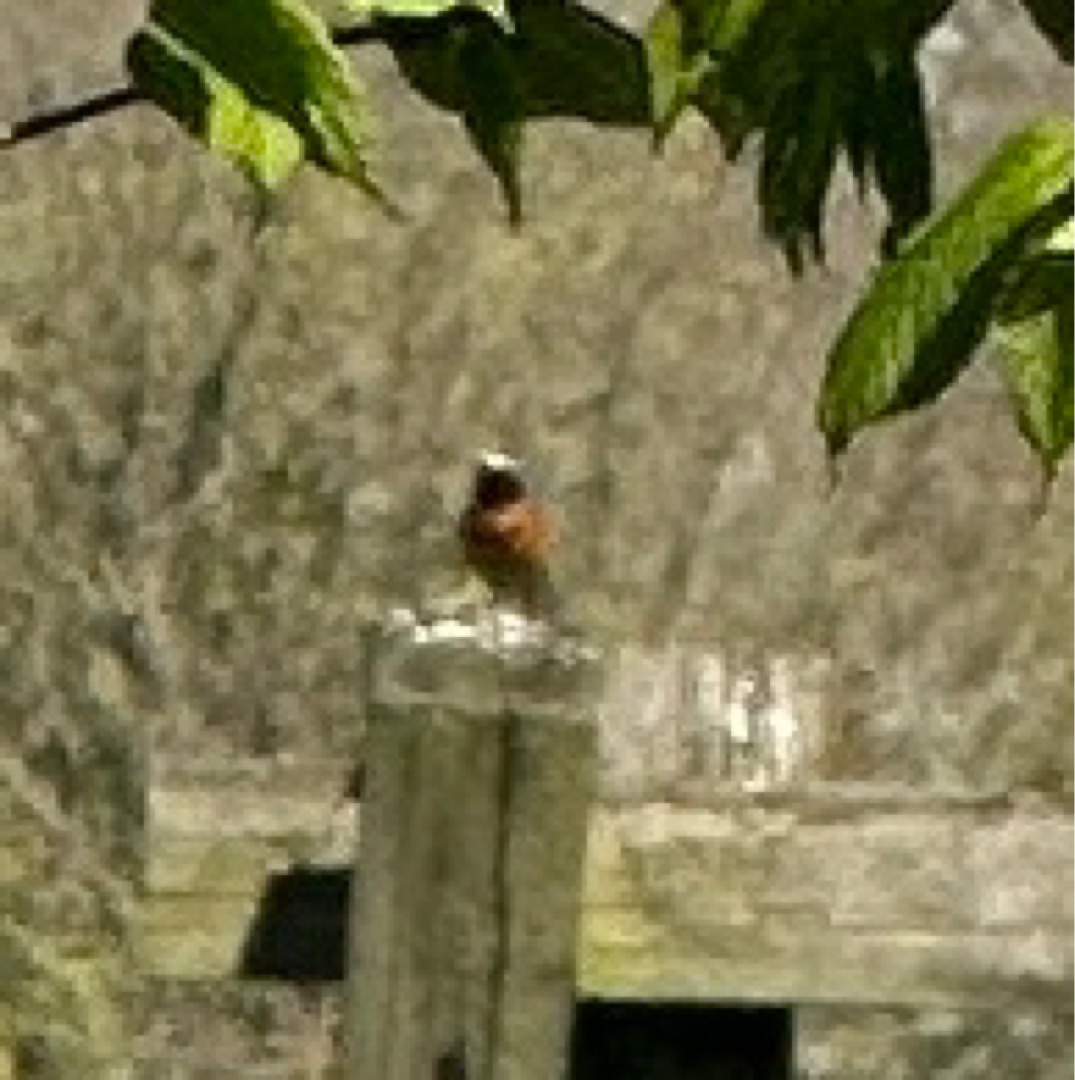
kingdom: Animalia
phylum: Chordata
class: Aves
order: Passeriformes
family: Muscicapidae
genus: Phoenicurus
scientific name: Phoenicurus phoenicurus
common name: Rødstjert
